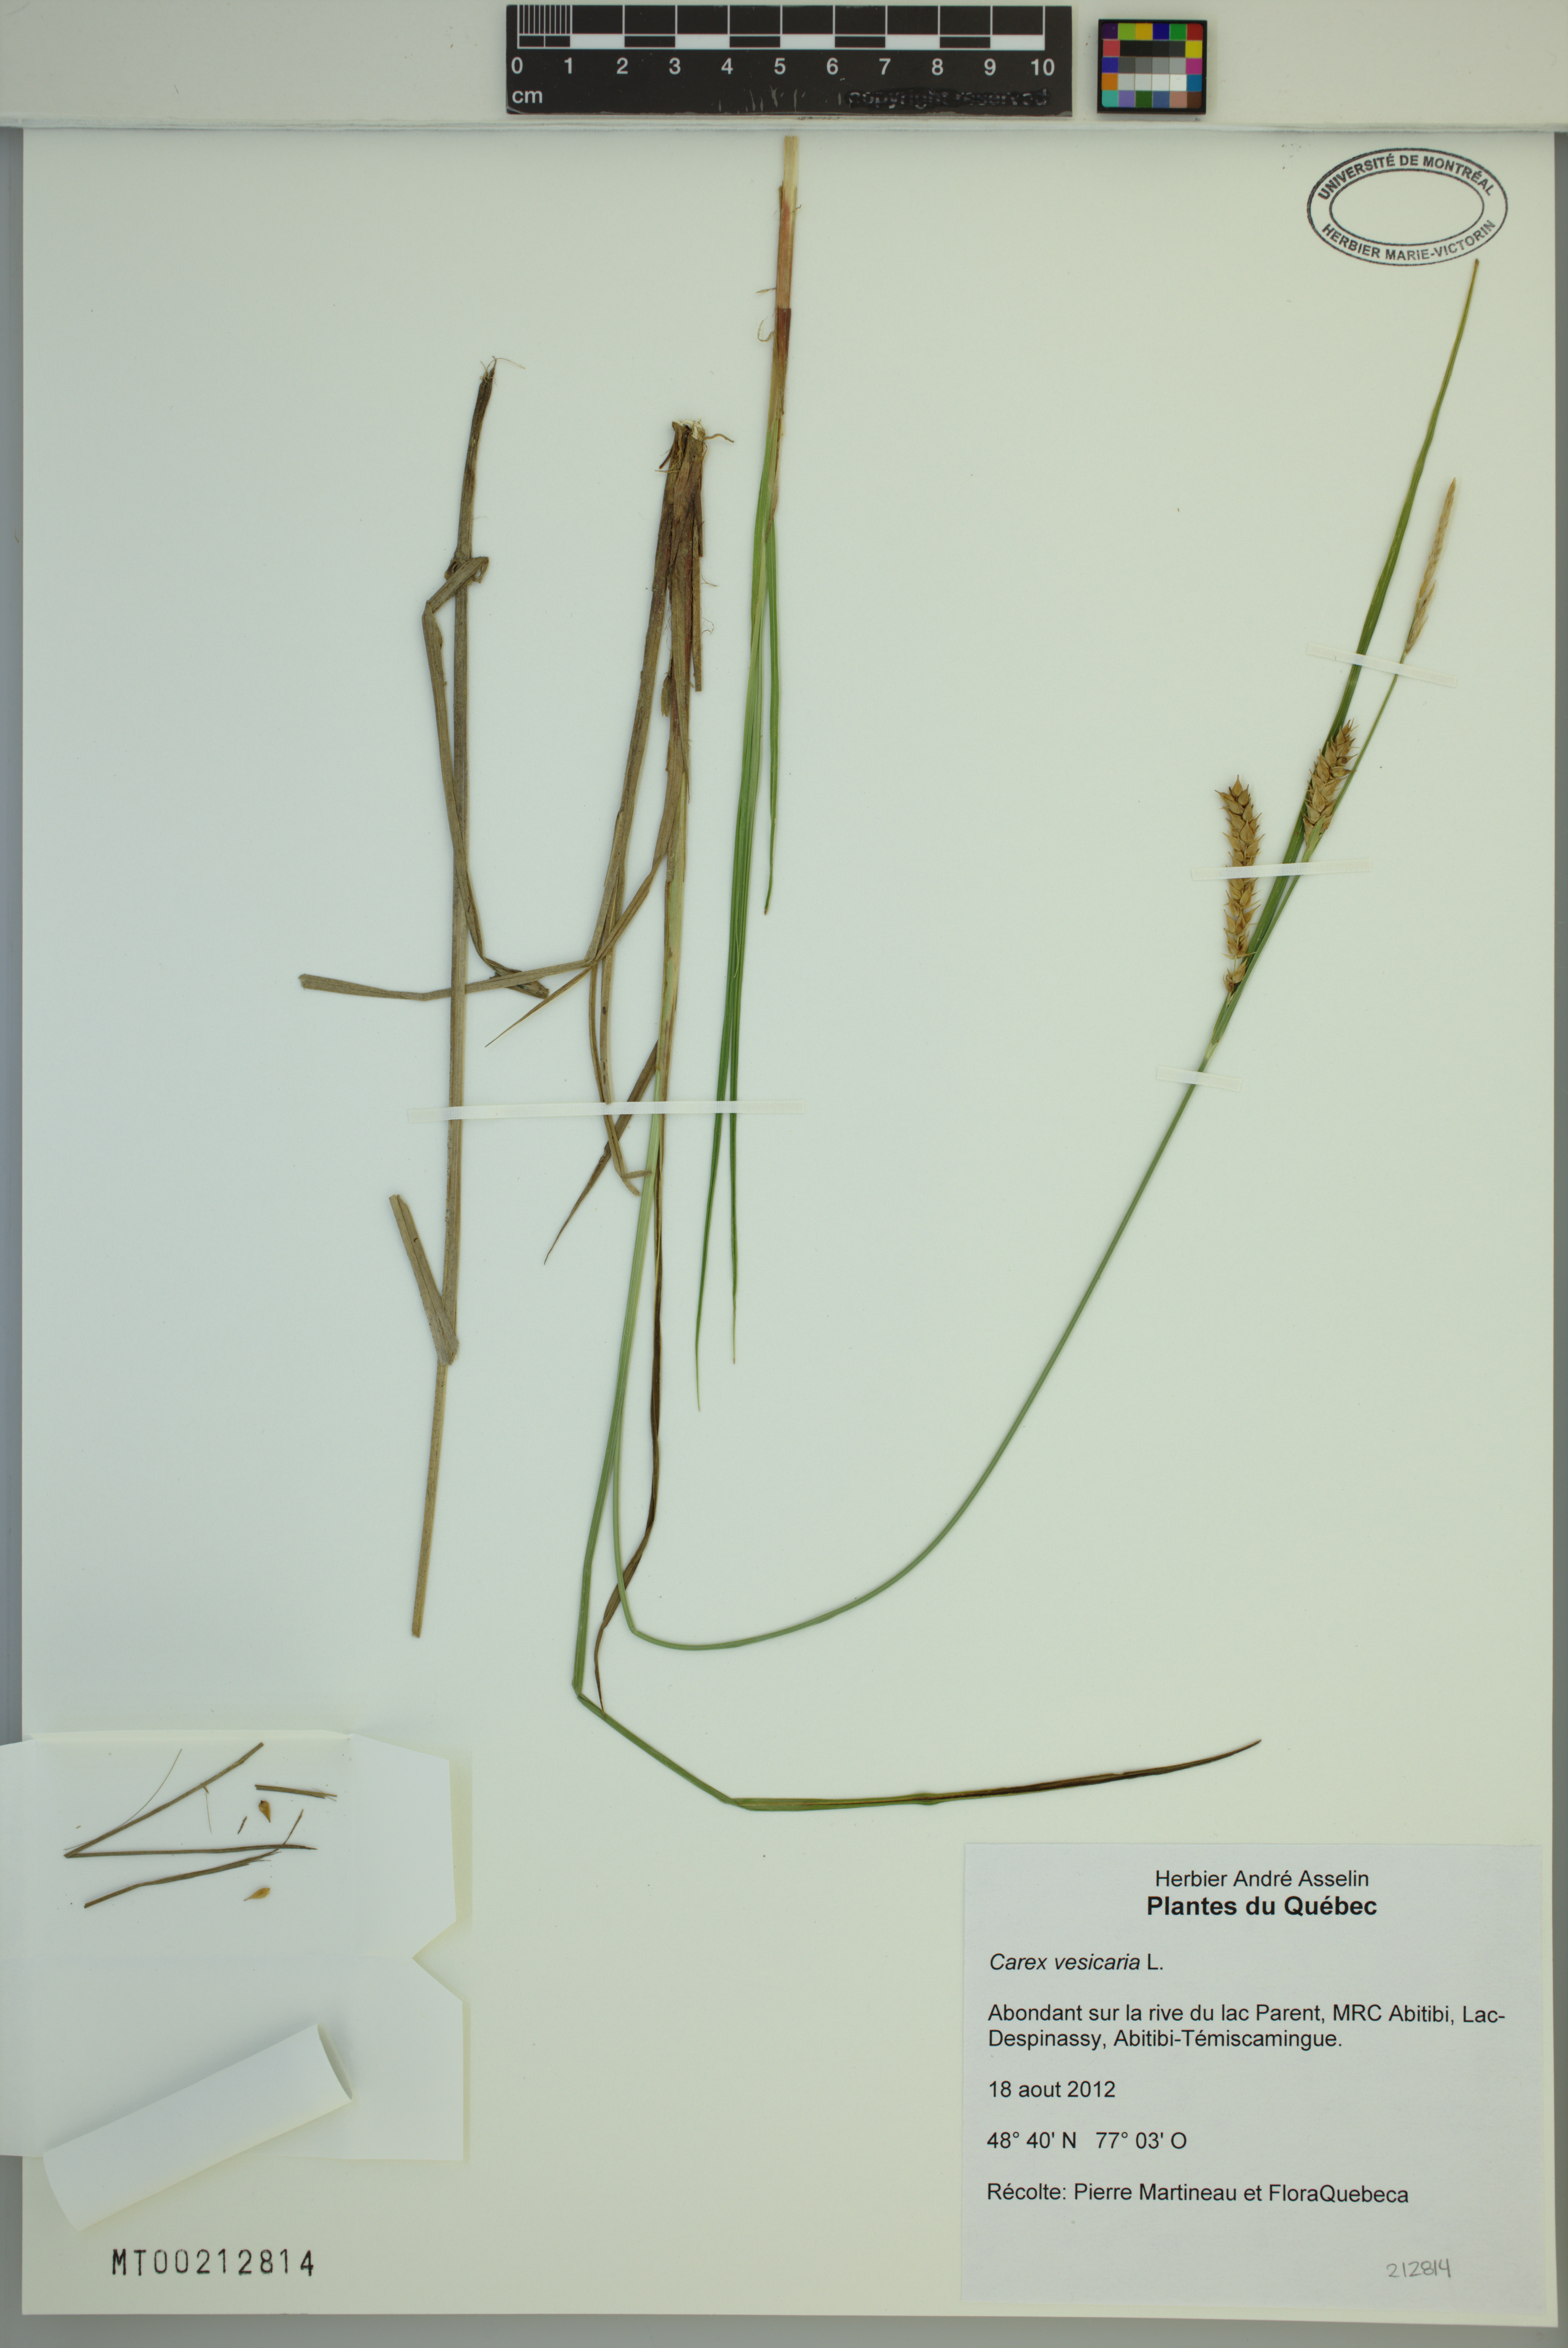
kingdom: Plantae
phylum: Tracheophyta
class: Liliopsida
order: Poales
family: Cyperaceae
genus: Carex
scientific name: Carex vesicaria
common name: Bladder-sedge
